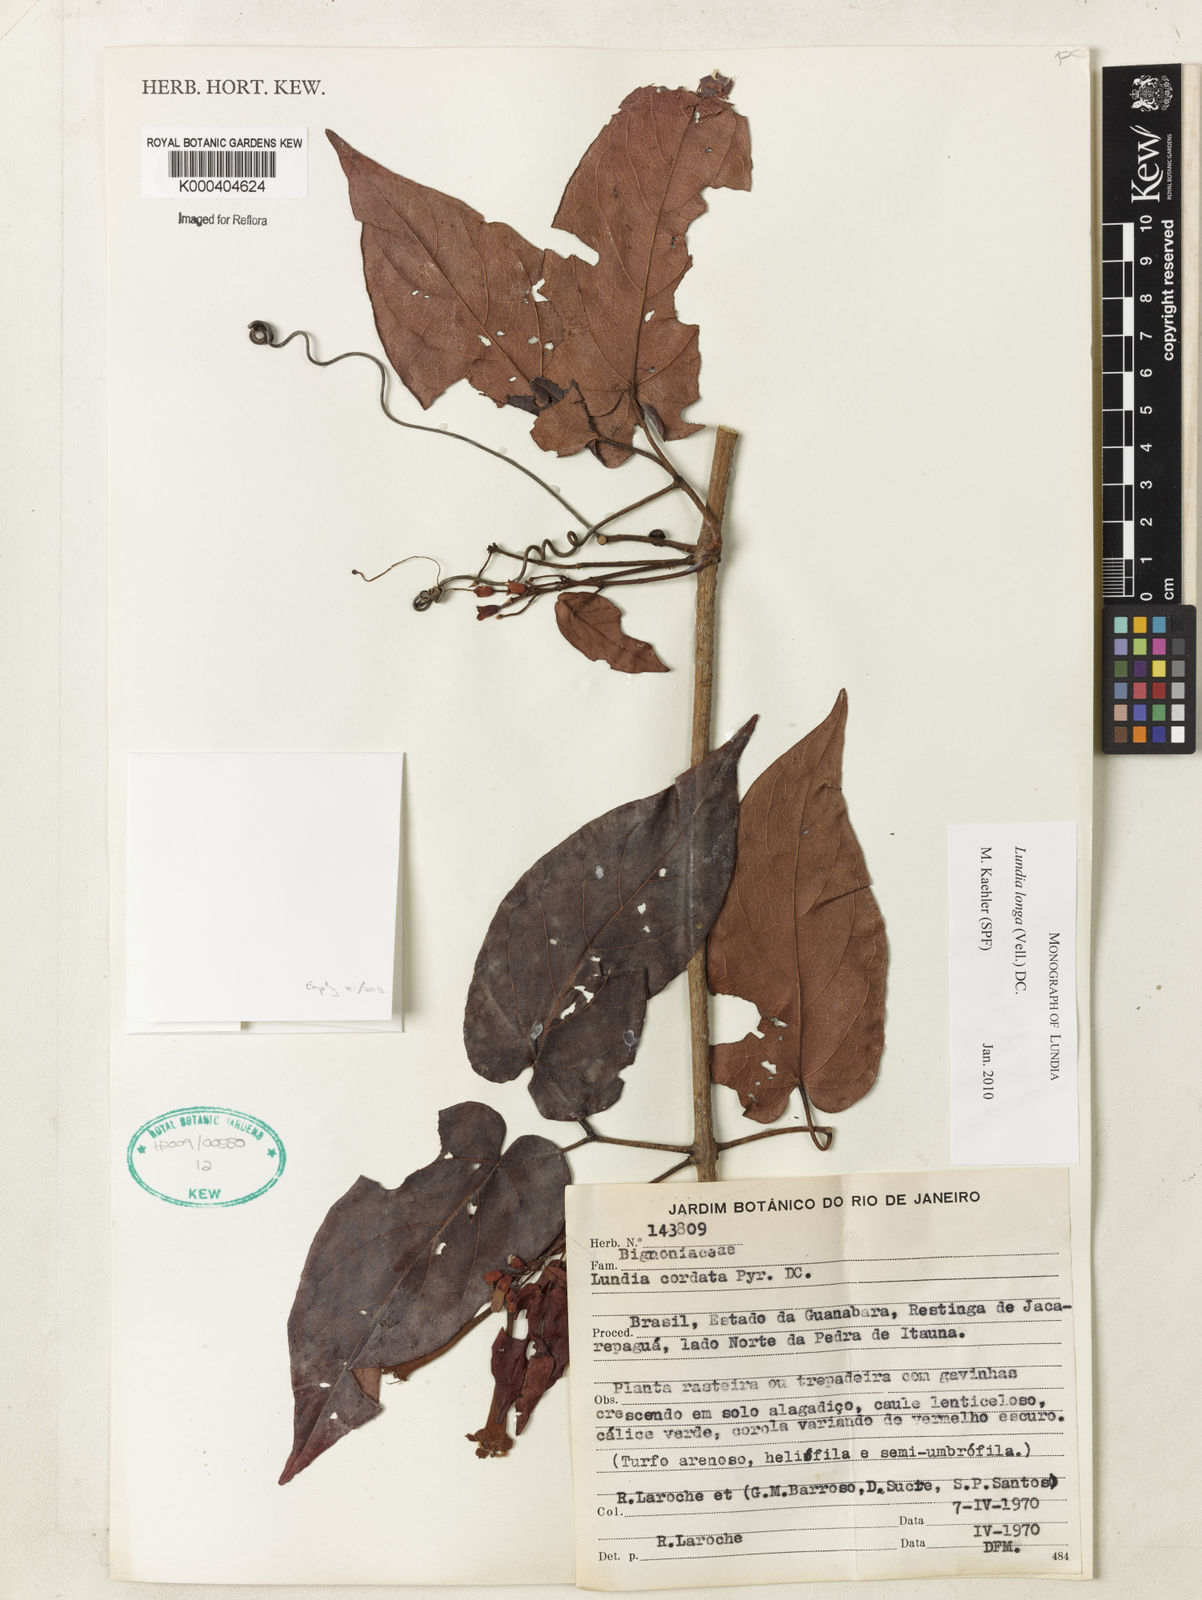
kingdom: Plantae
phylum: Tracheophyta
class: Magnoliopsida
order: Lamiales
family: Bignoniaceae
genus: Lundia
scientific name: Lundia longa
